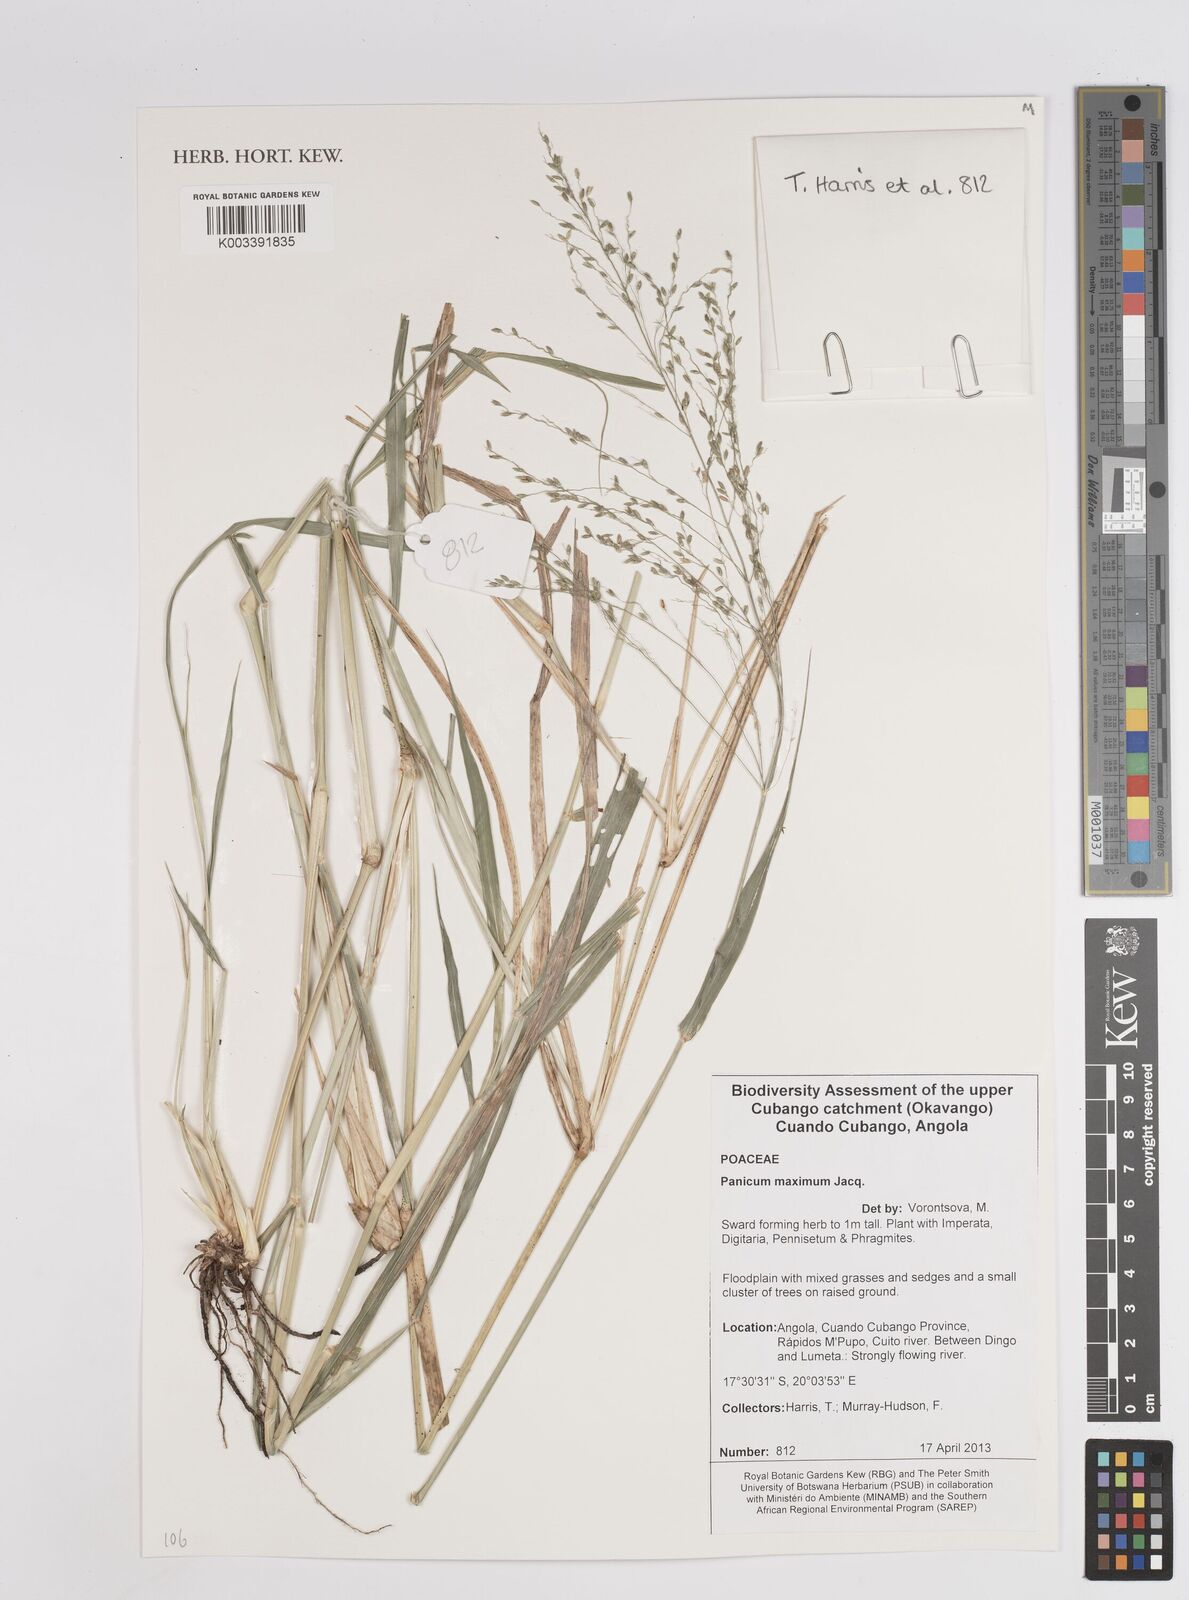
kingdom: Plantae
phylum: Tracheophyta
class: Liliopsida
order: Poales
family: Poaceae
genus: Megathyrsus
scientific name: Megathyrsus maximus
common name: Guineagrass
